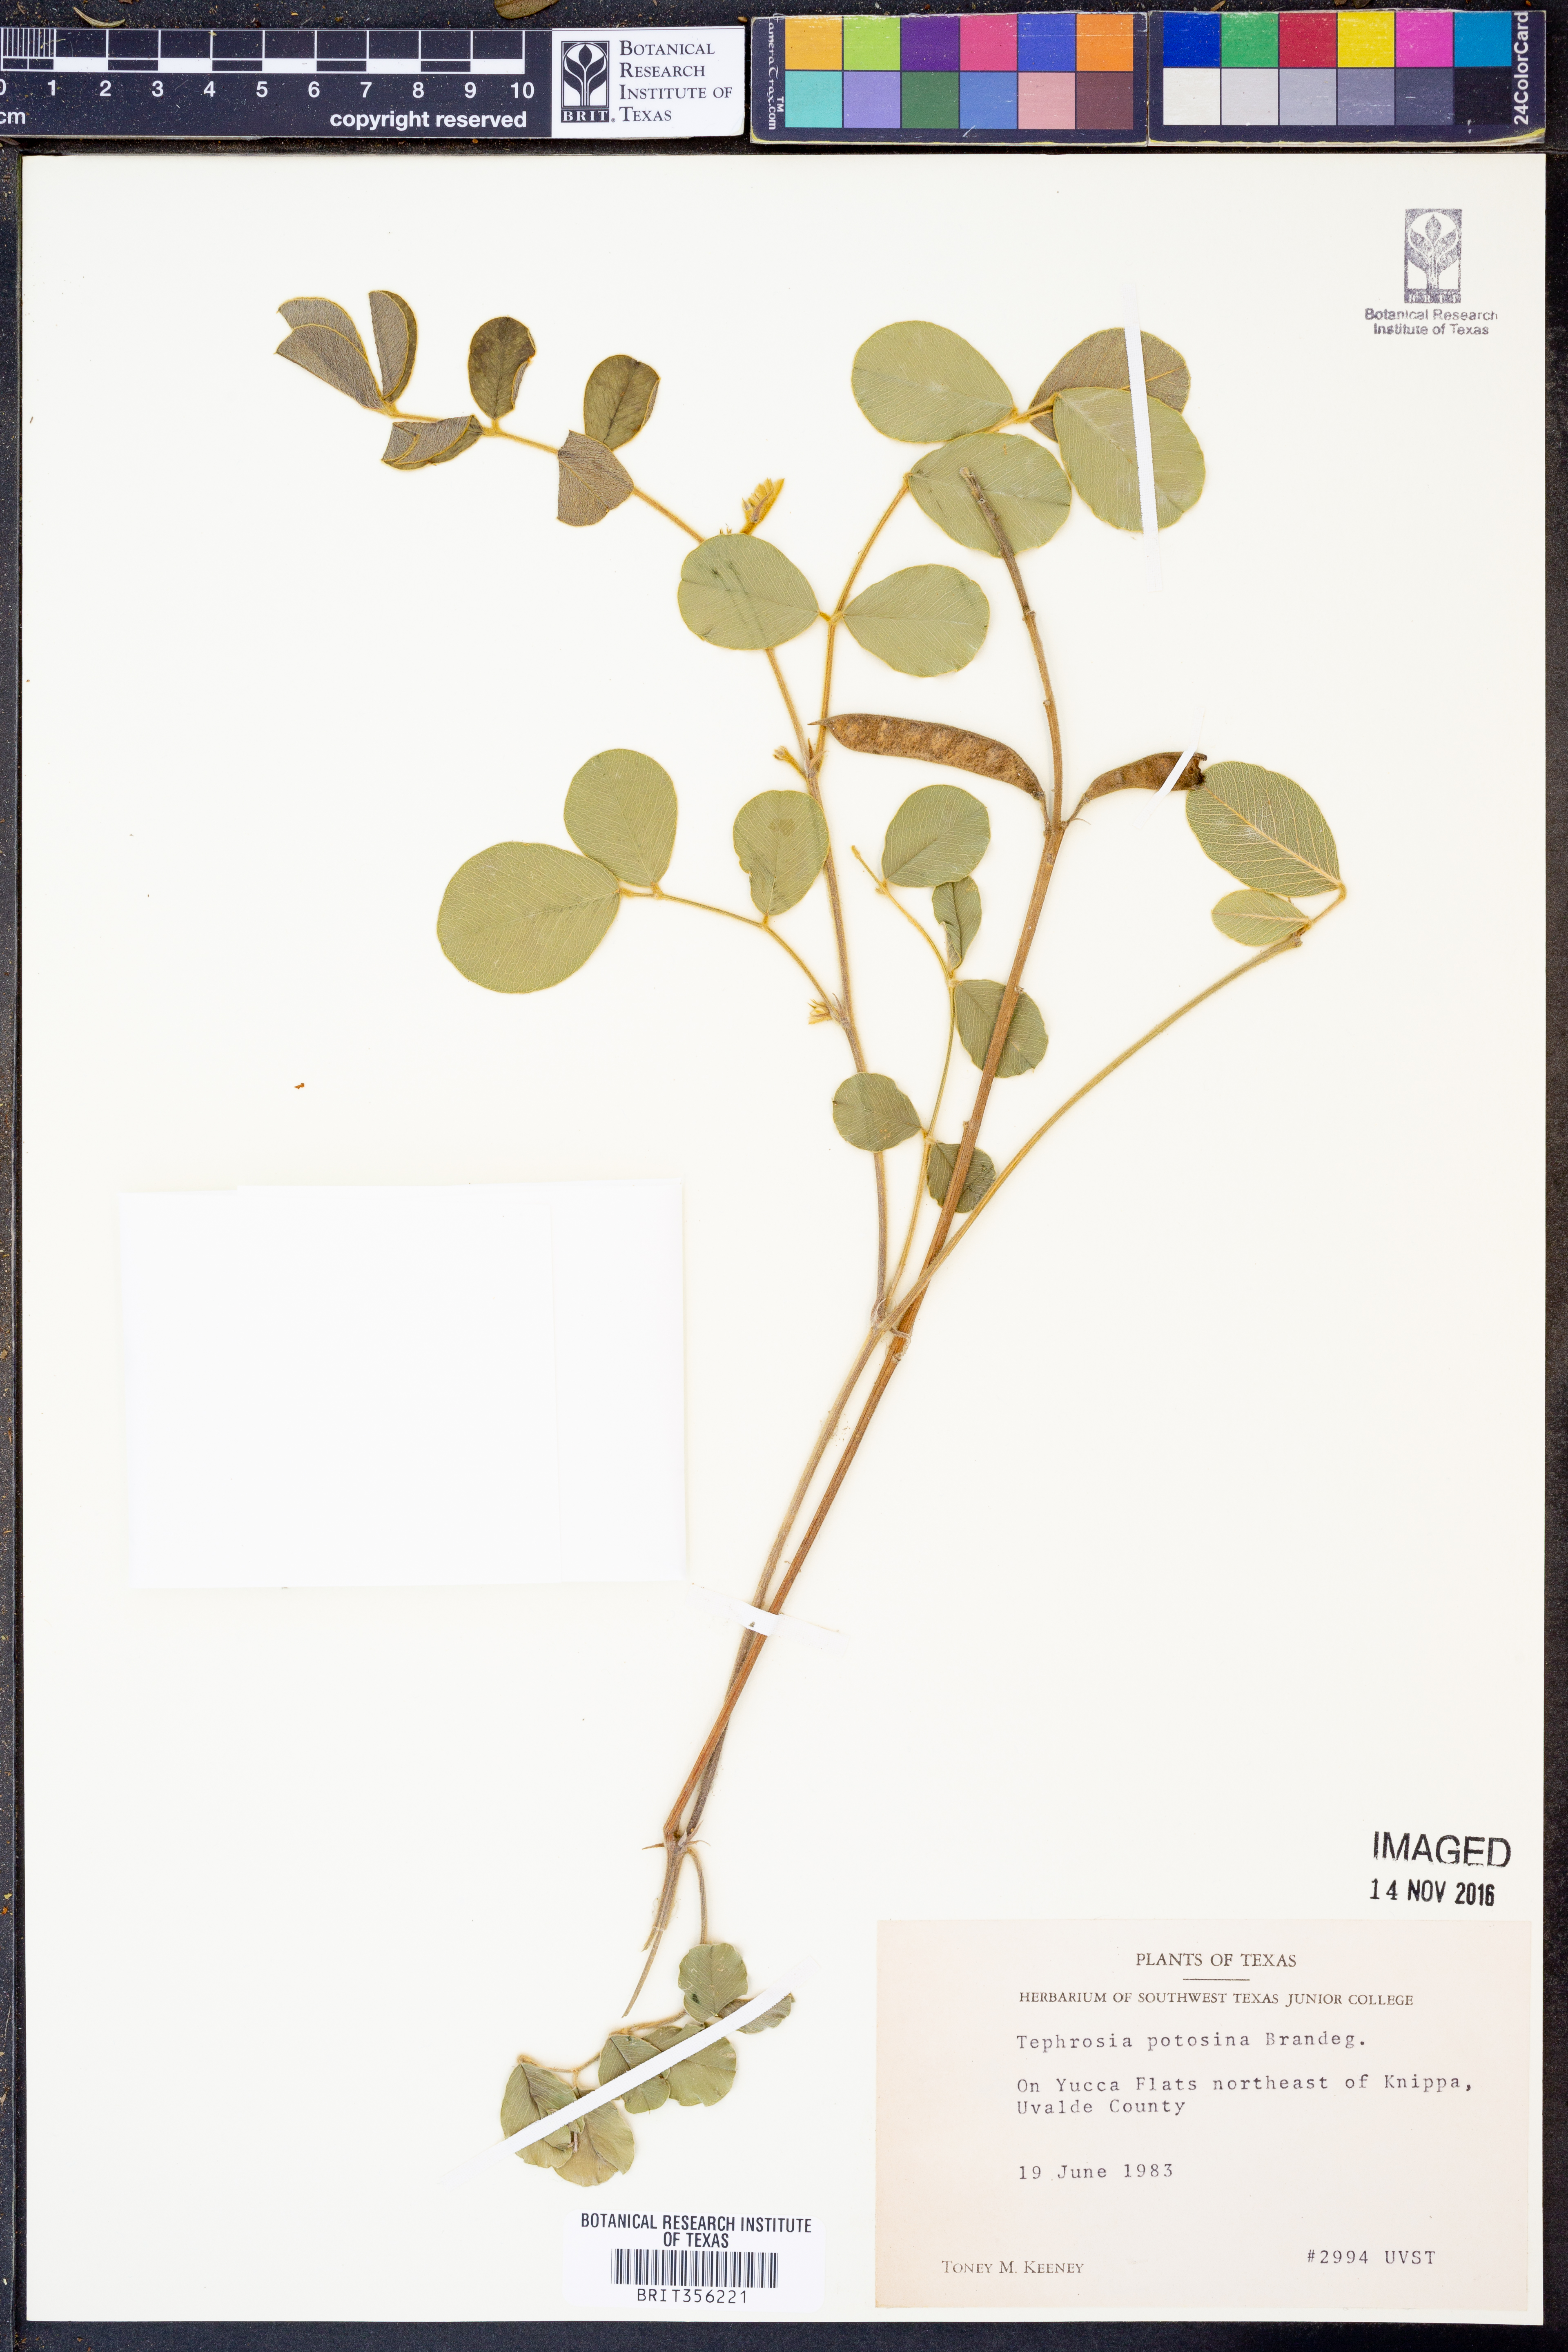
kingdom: Plantae
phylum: Tracheophyta
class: Magnoliopsida
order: Fabales
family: Fabaceae
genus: Tephrosia
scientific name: Tephrosia potosina
